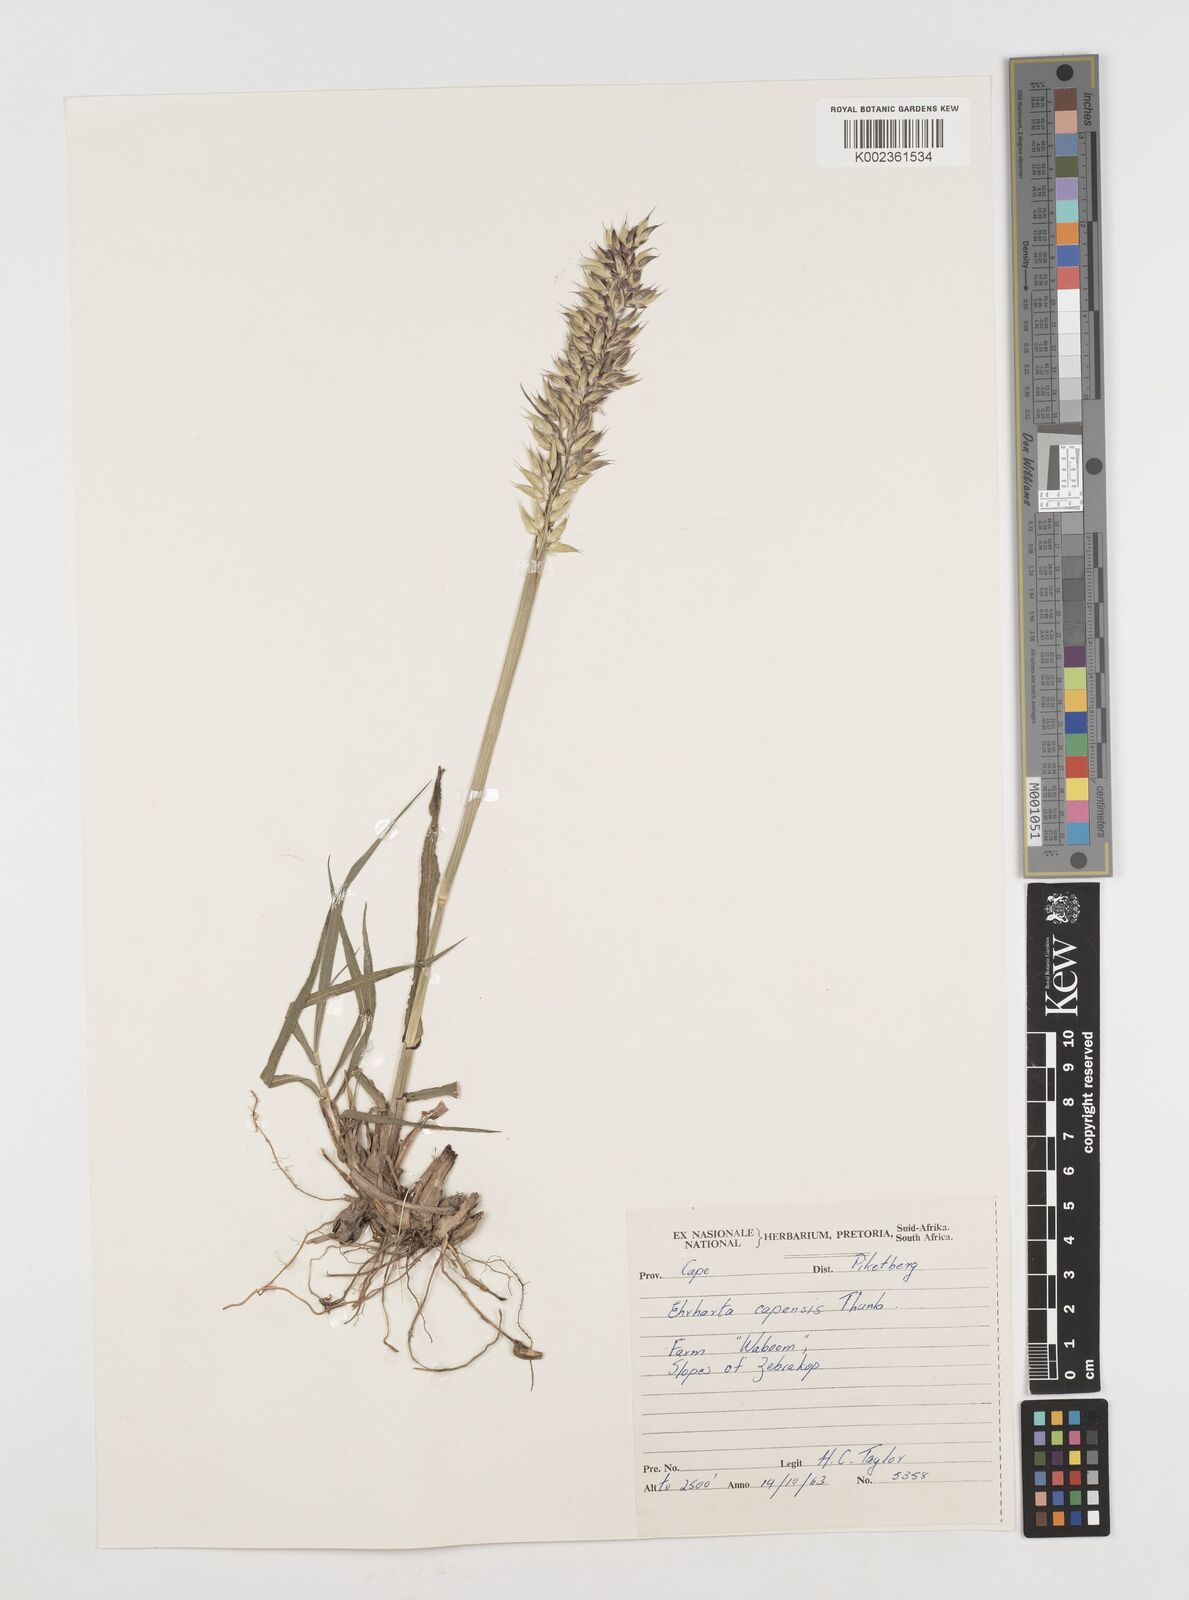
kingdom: Plantae
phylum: Tracheophyta
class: Liliopsida
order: Poales
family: Poaceae
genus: Ehrharta
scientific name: Ehrharta capensis
